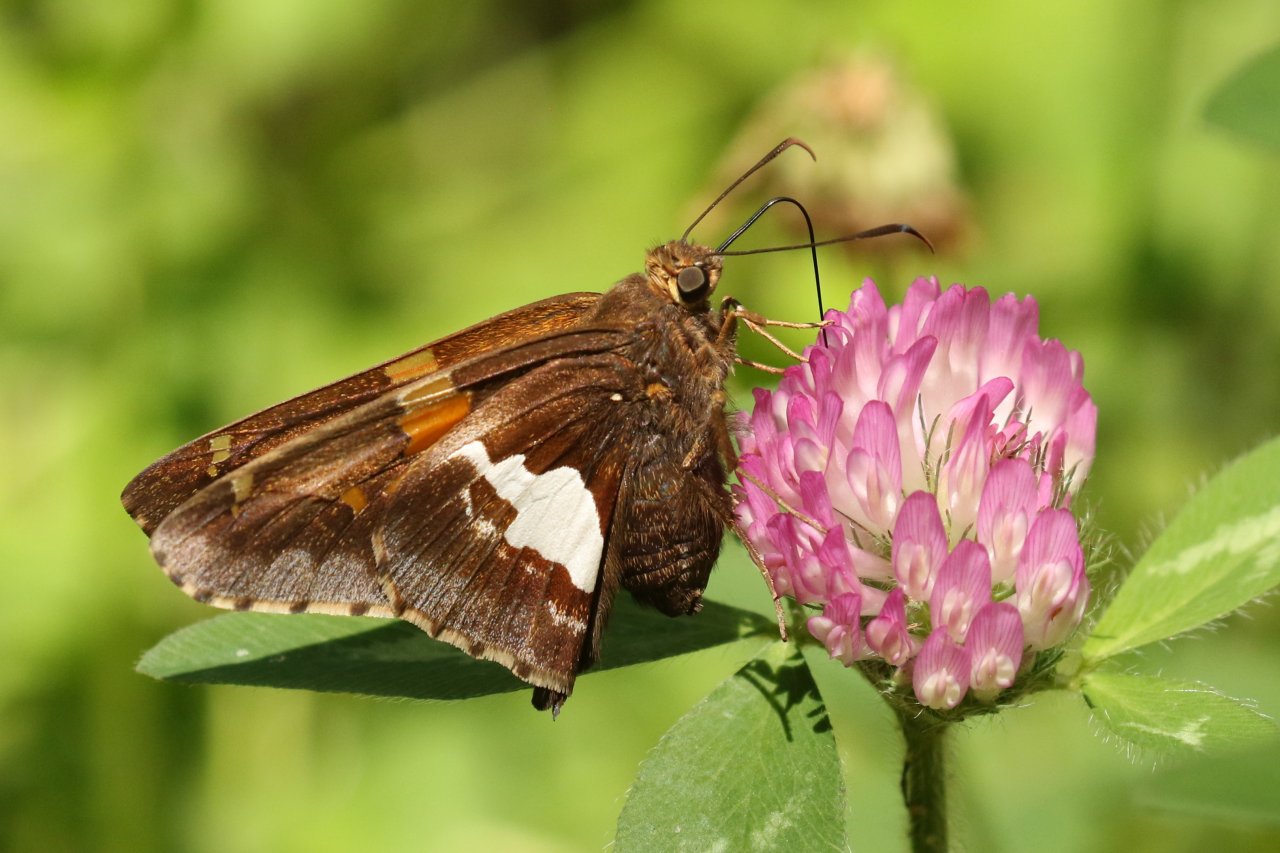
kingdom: Animalia
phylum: Arthropoda
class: Insecta
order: Lepidoptera
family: Hesperiidae
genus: Epargyreus
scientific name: Epargyreus clarus
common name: Silver-spotted Skipper
